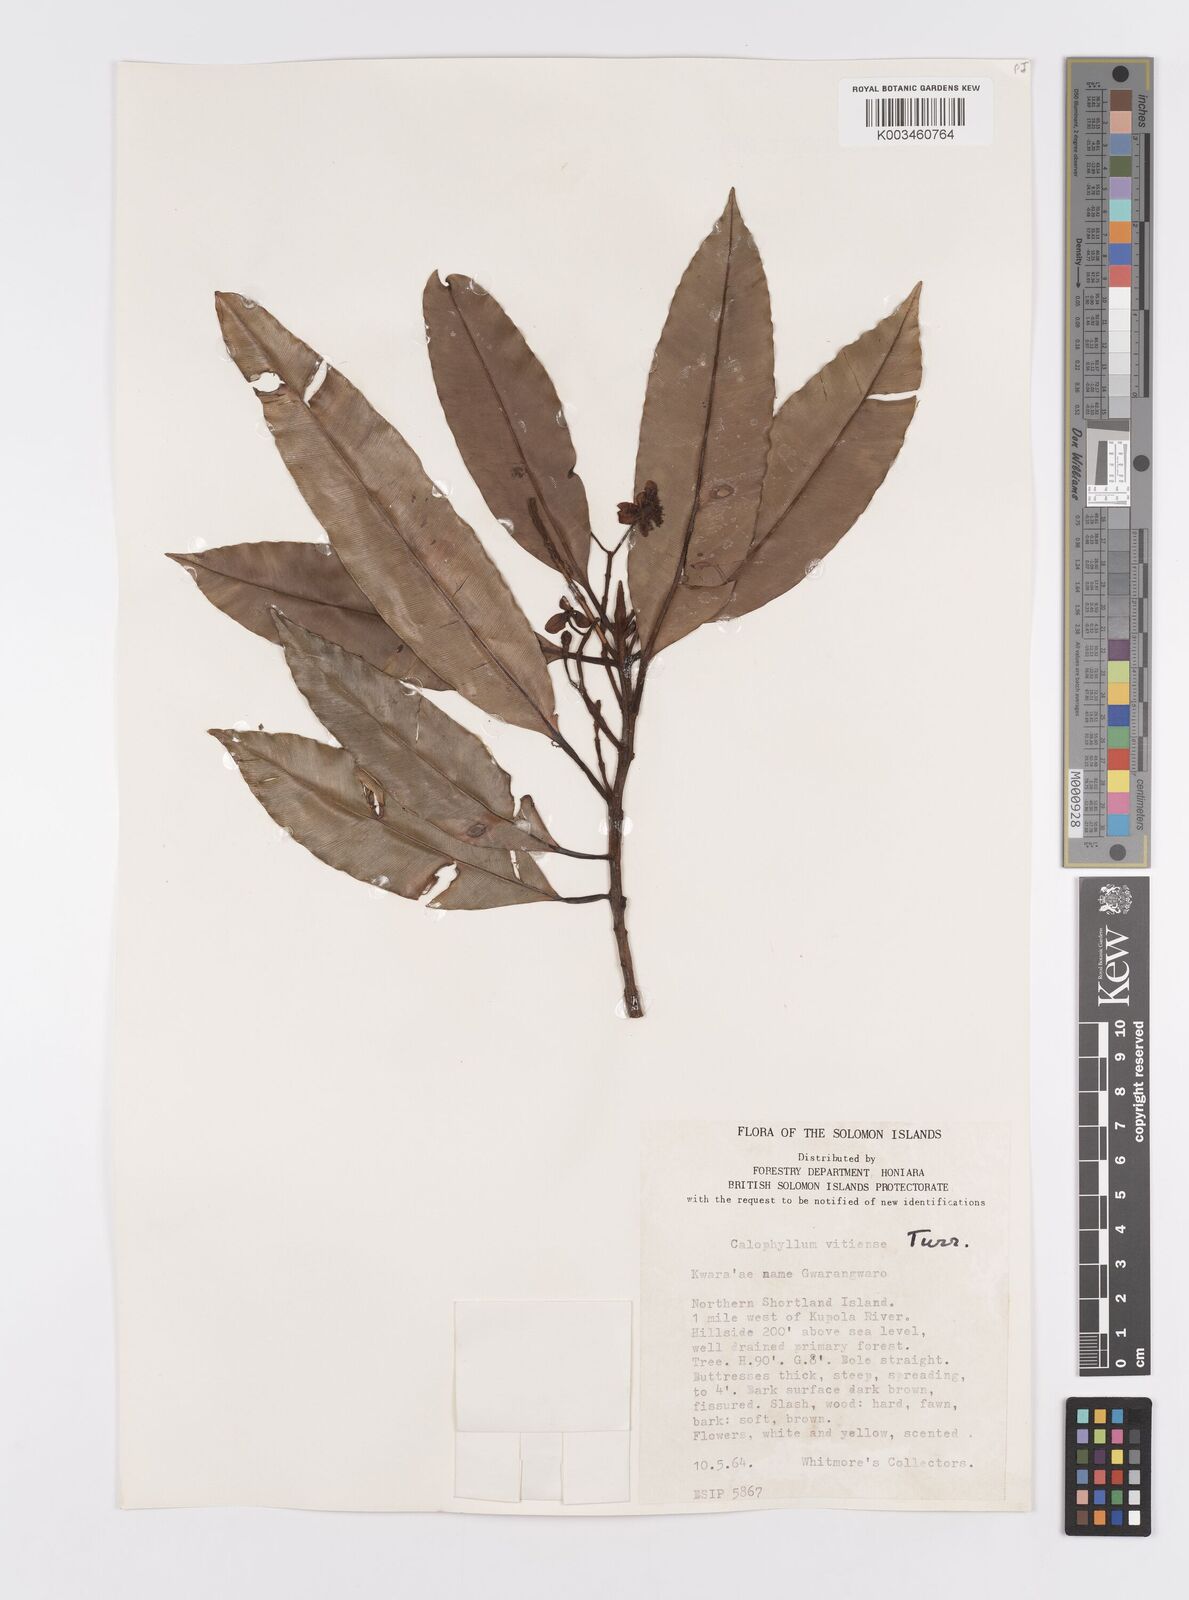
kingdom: Plantae
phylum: Tracheophyta
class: Magnoliopsida
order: Malpighiales
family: Calophyllaceae
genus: Calophyllum
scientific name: Calophyllum vitiense
